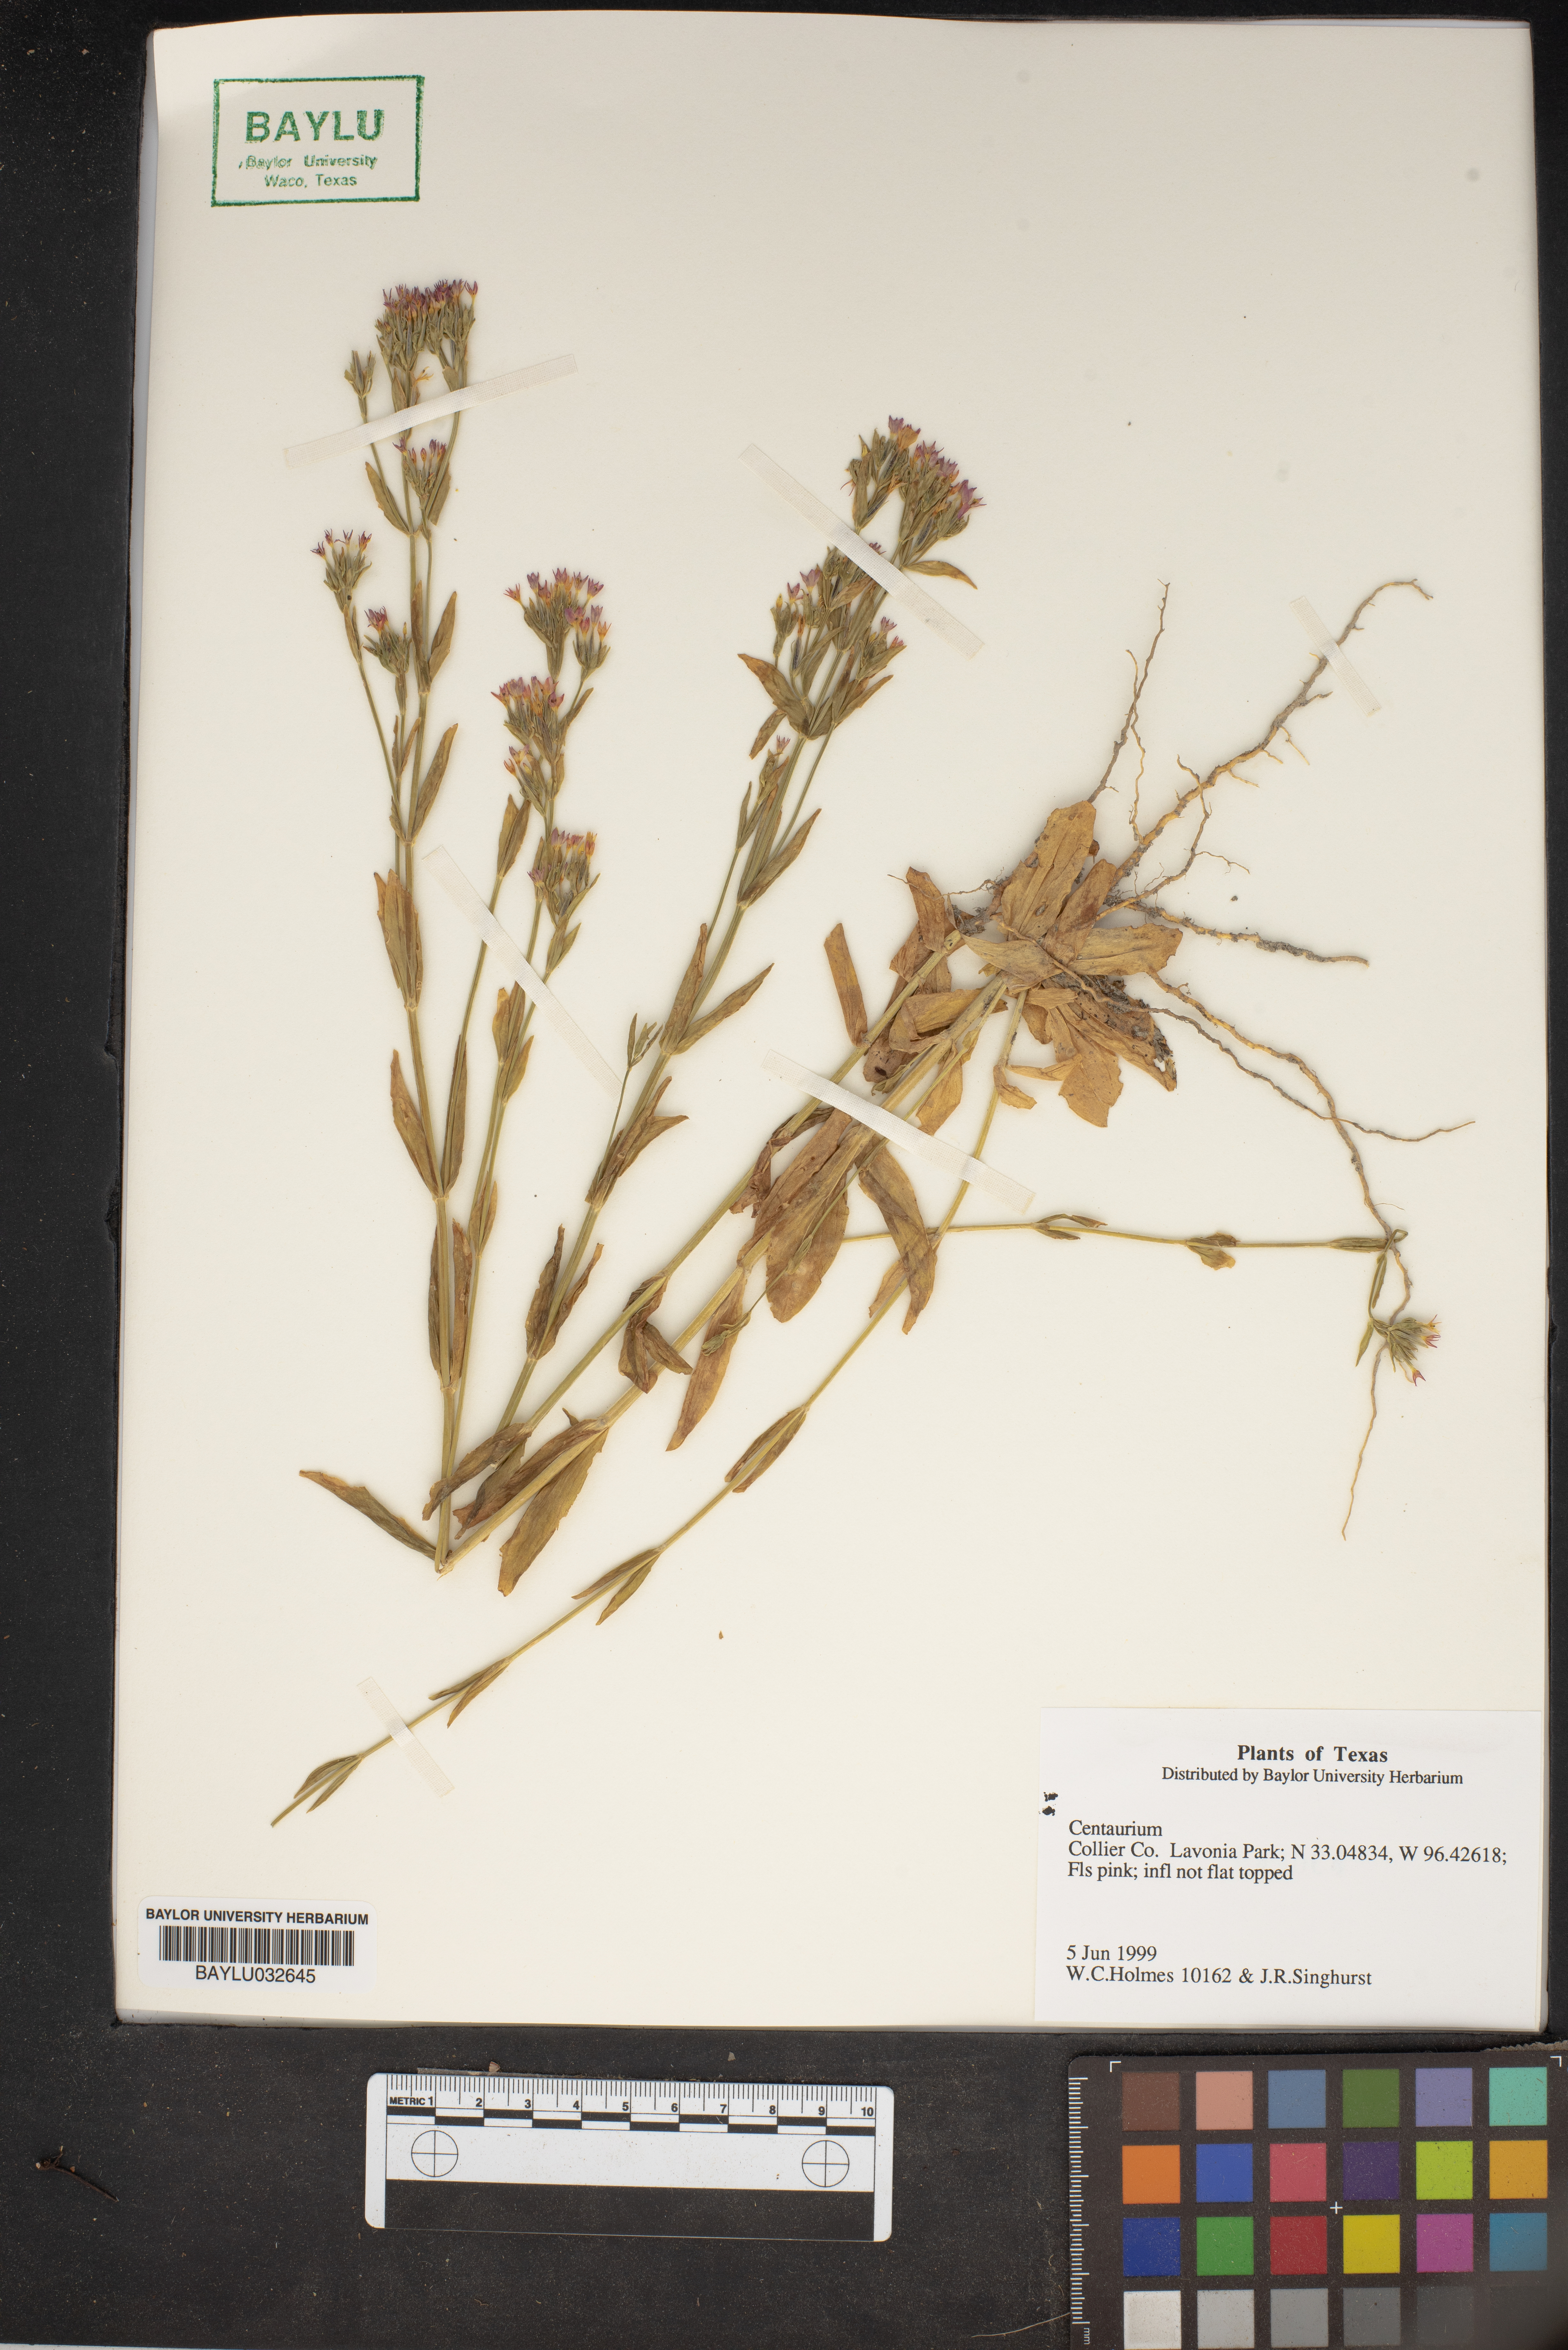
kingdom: Plantae
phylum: Tracheophyta
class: Magnoliopsida
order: Gentianales
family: Gentianaceae
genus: Centaurium
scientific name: Centaurium
